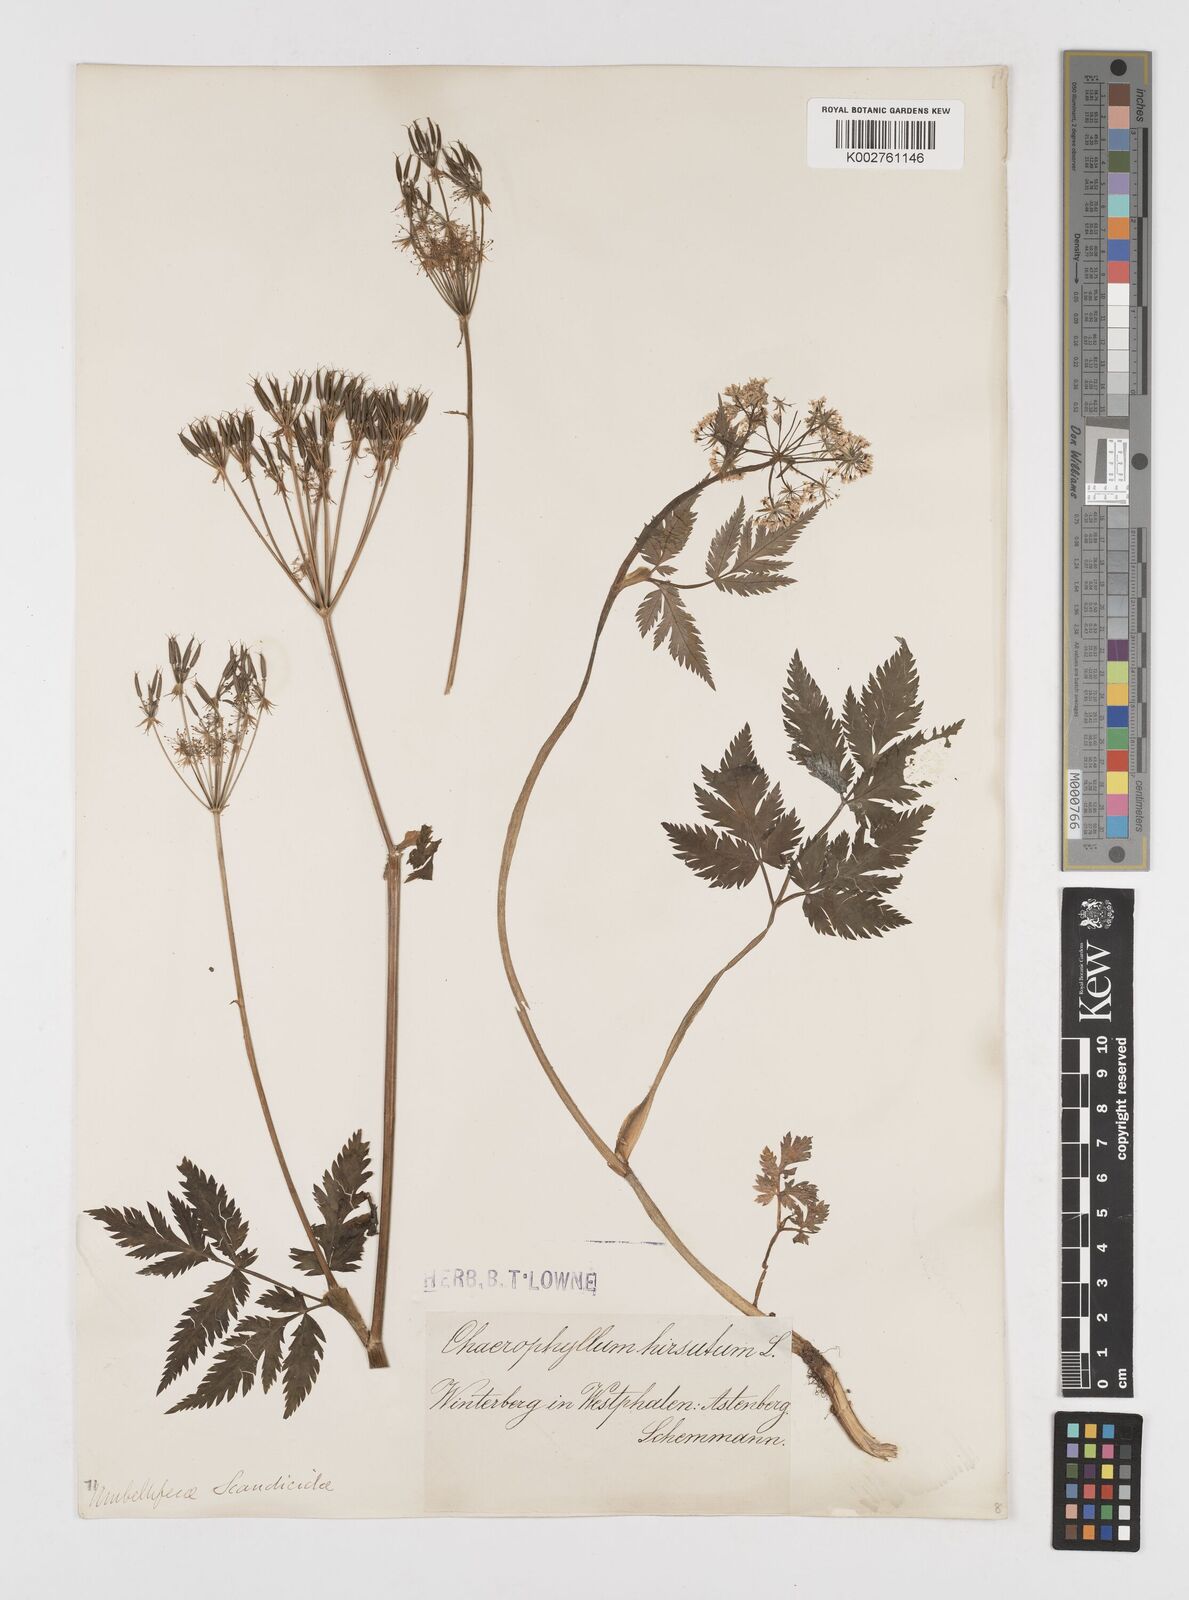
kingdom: Plantae
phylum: Tracheophyta
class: Magnoliopsida
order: Apiales
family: Apiaceae
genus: Chaerophyllum
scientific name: Chaerophyllum hirsutum
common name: Hairy chervil
